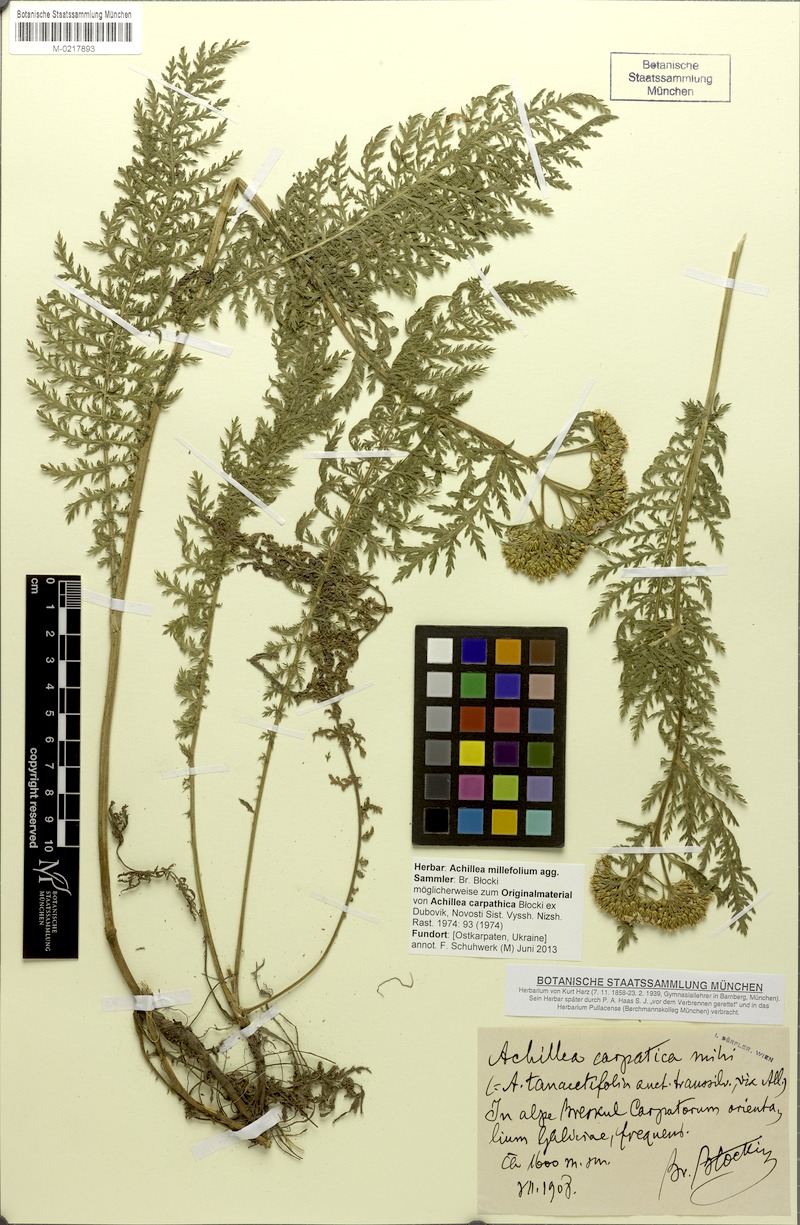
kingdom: Plantae
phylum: Tracheophyta
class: Magnoliopsida
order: Asterales
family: Asteraceae
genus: Achillea
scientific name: Achillea millefolium
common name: Yarrow
